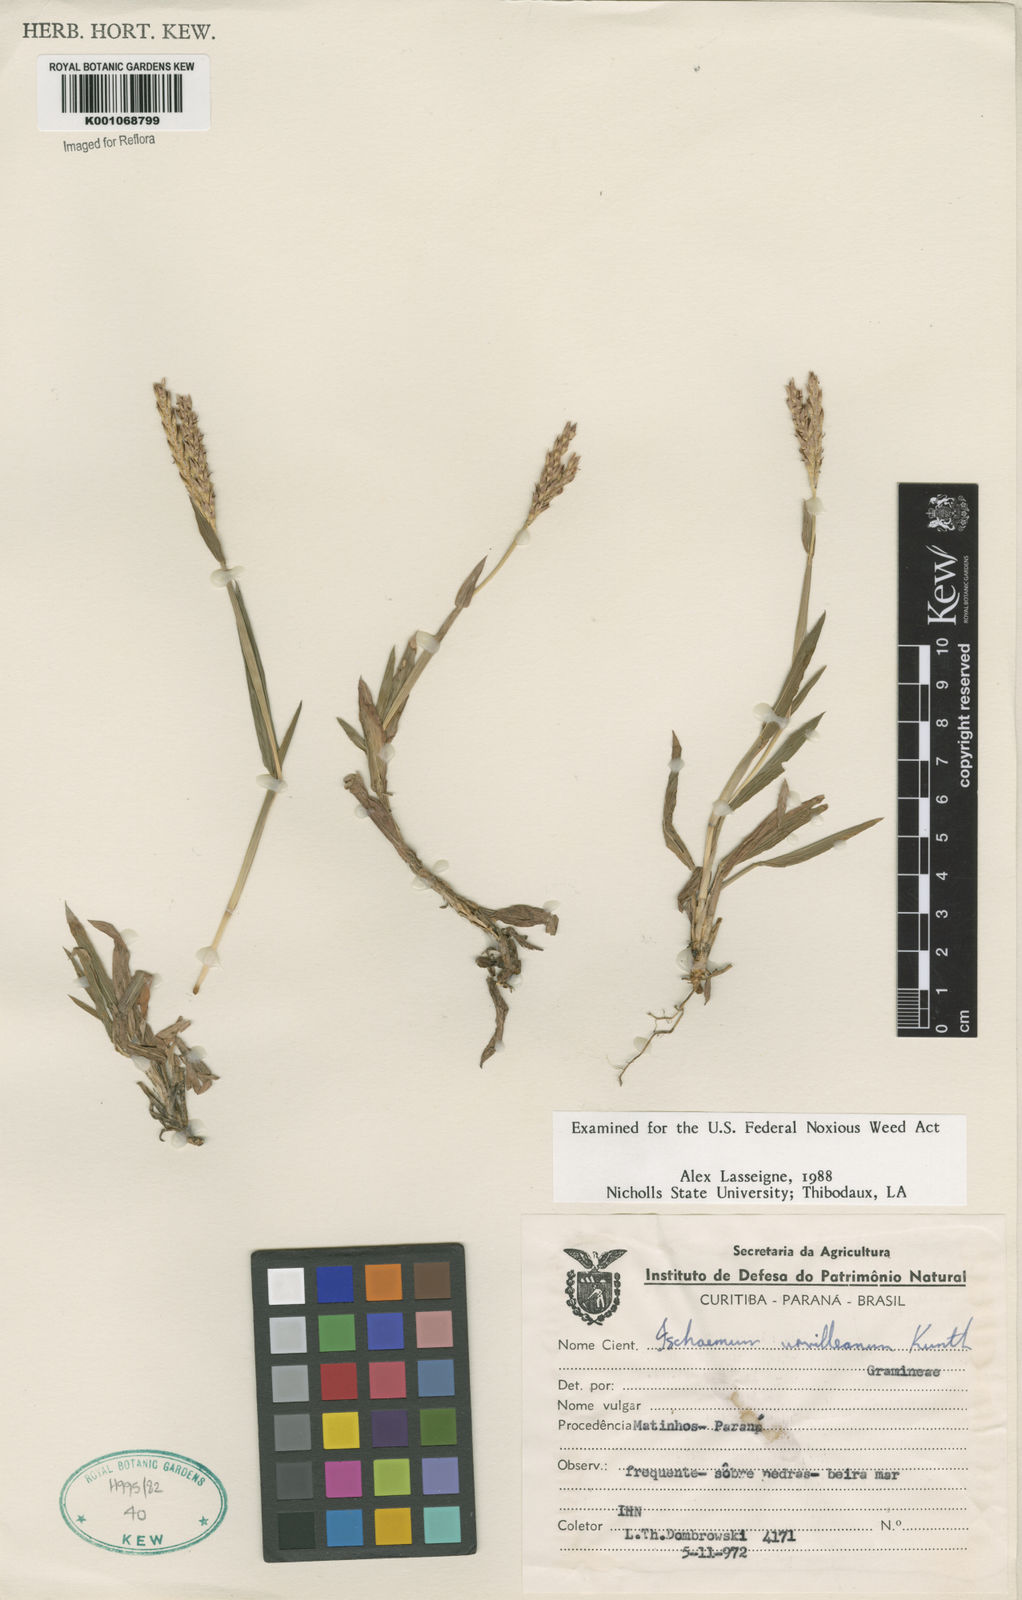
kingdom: Plantae
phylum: Tracheophyta
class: Liliopsida
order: Poales
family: Poaceae
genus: Ischaemum
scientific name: Ischaemum minus
